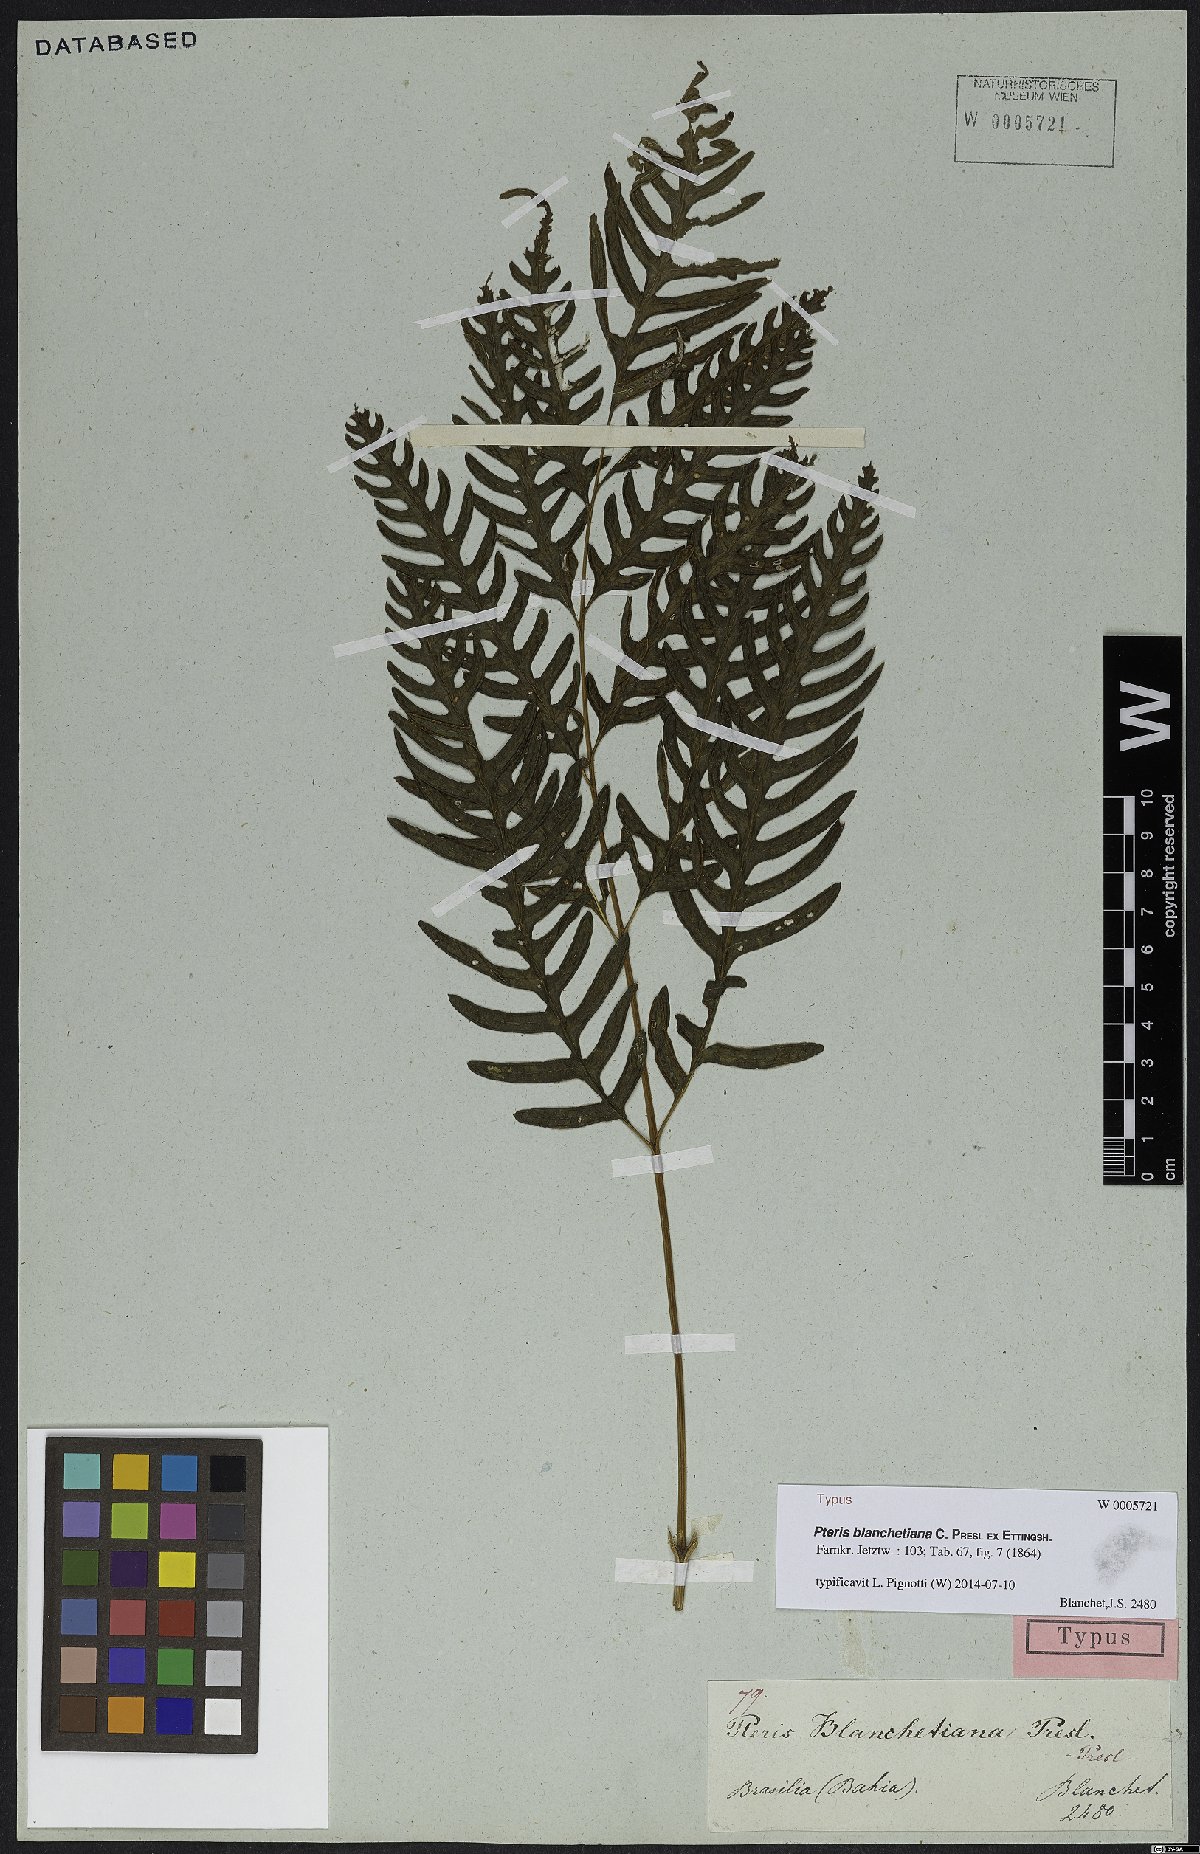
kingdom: Plantae
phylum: Tracheophyta
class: Polypodiopsida
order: Polypodiales
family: Pteridaceae
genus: Pteris
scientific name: Pteris blanchetiana
